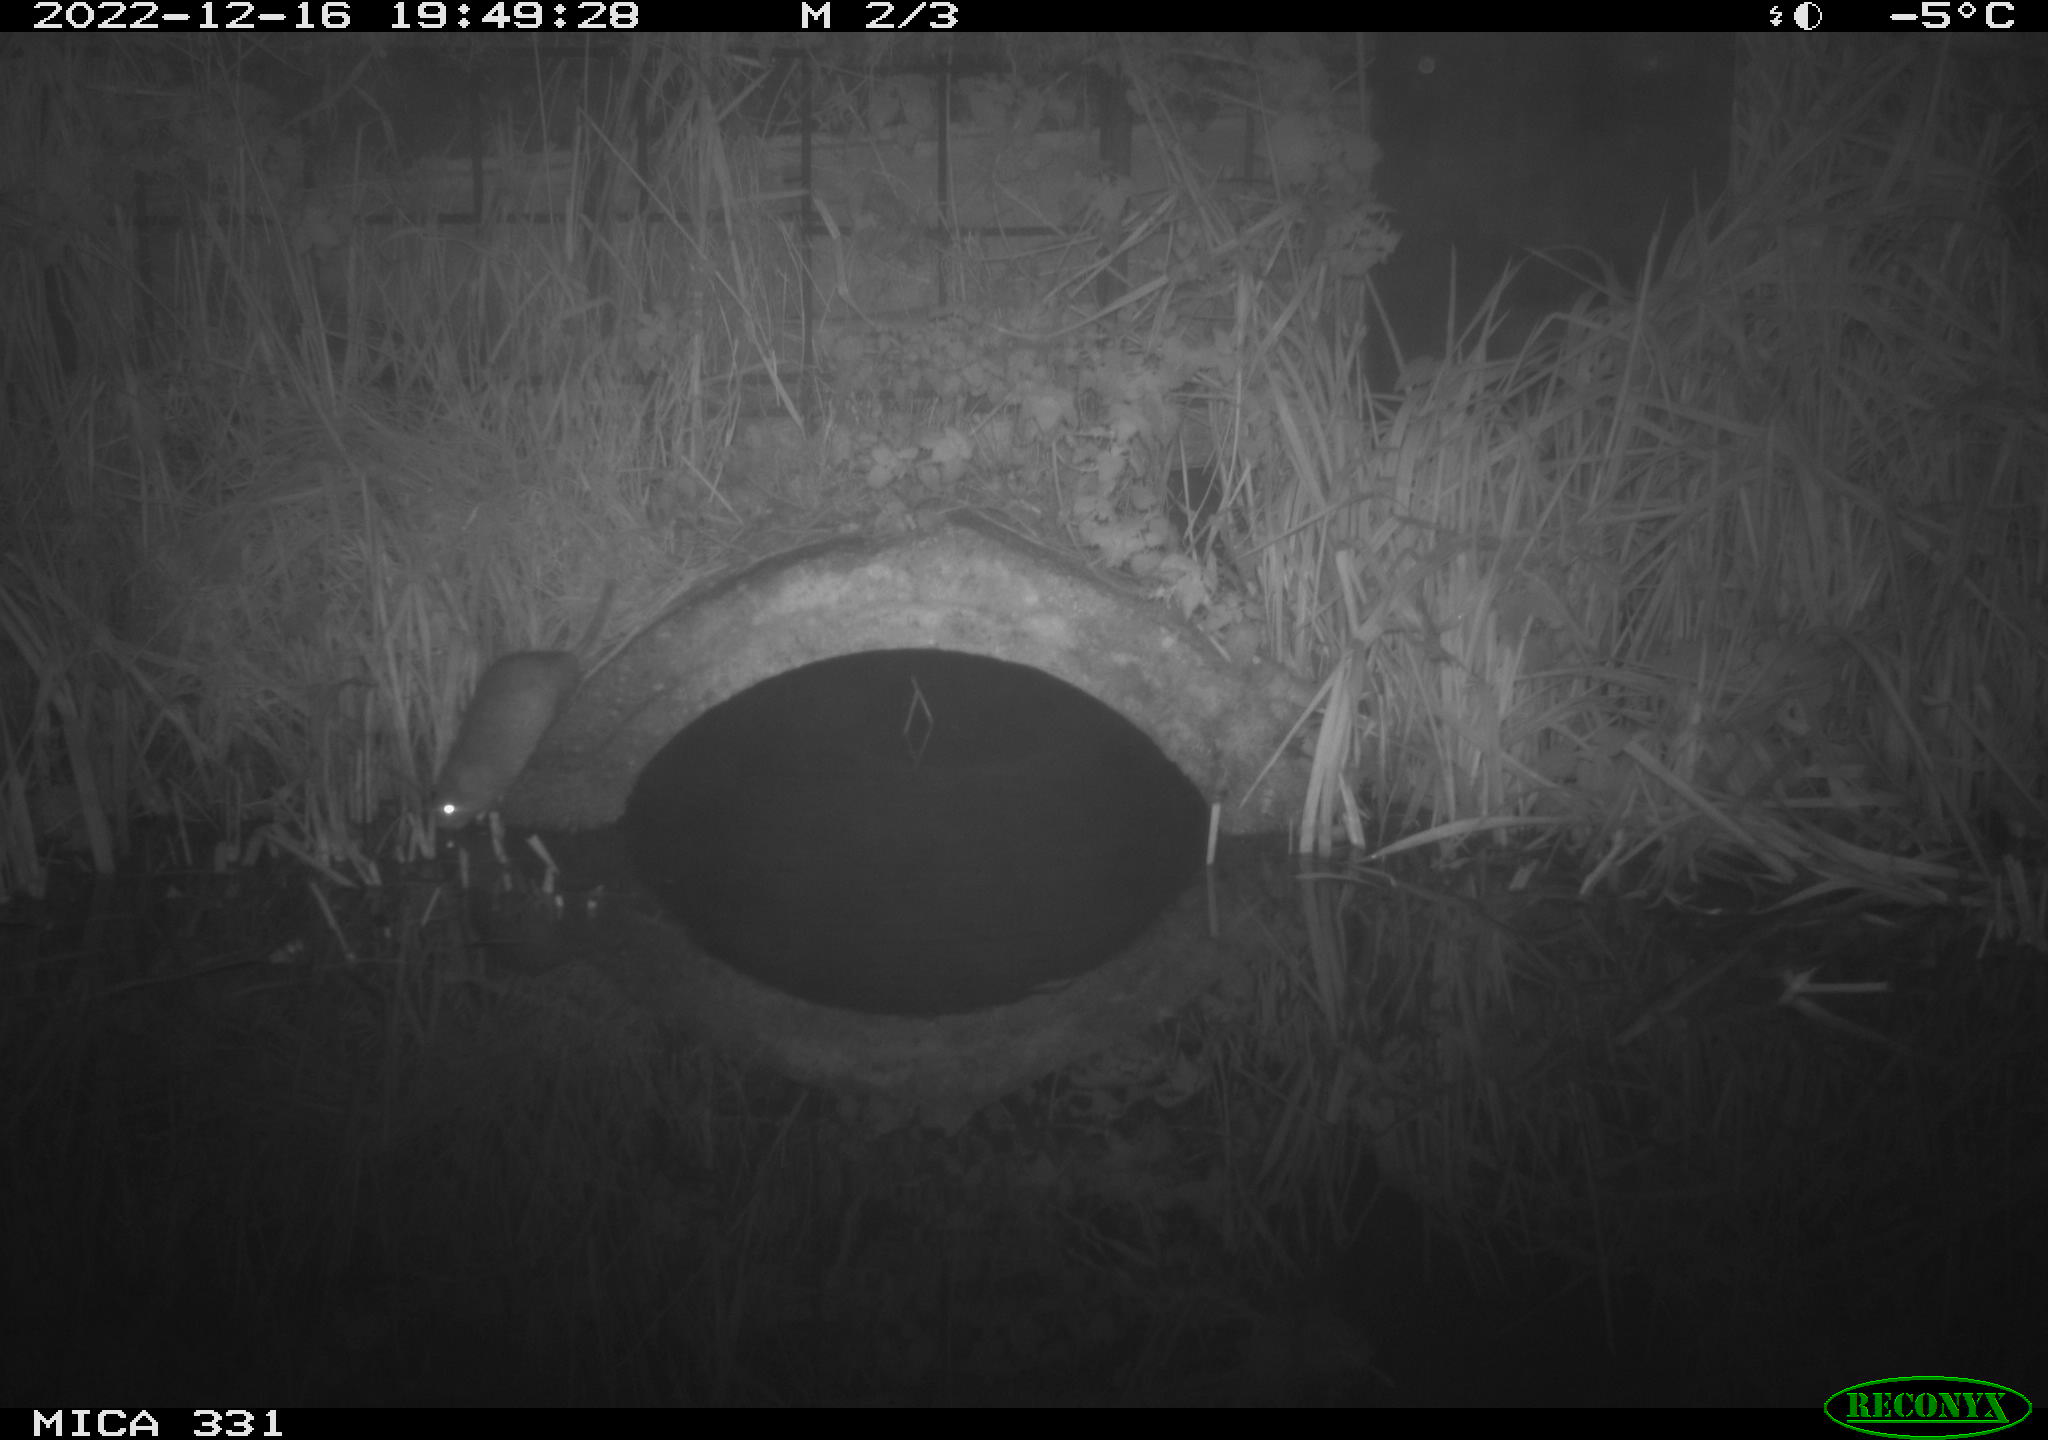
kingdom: Animalia
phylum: Chordata
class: Mammalia
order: Rodentia
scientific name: Rodentia
